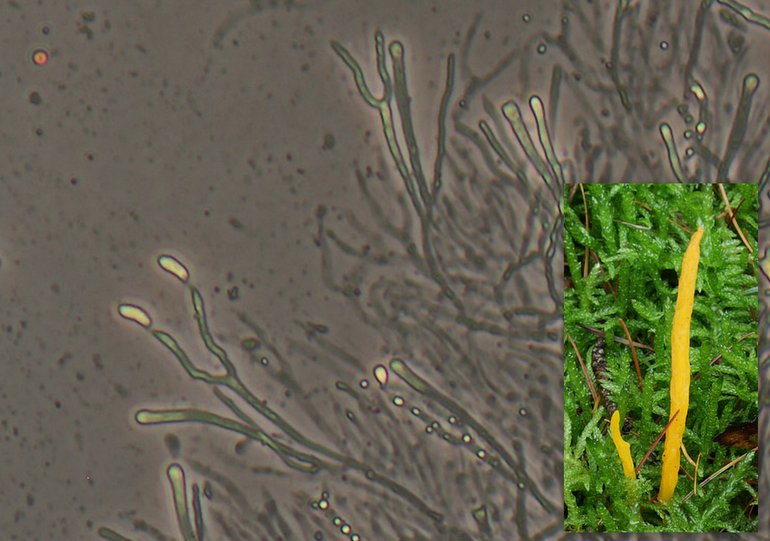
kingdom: Fungi
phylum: Basidiomycota
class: Dacrymycetes
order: Dacrymycetales
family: Dacrymycetaceae
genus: Calocera
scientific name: Calocera viscosa
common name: almindelig guldgaffel
